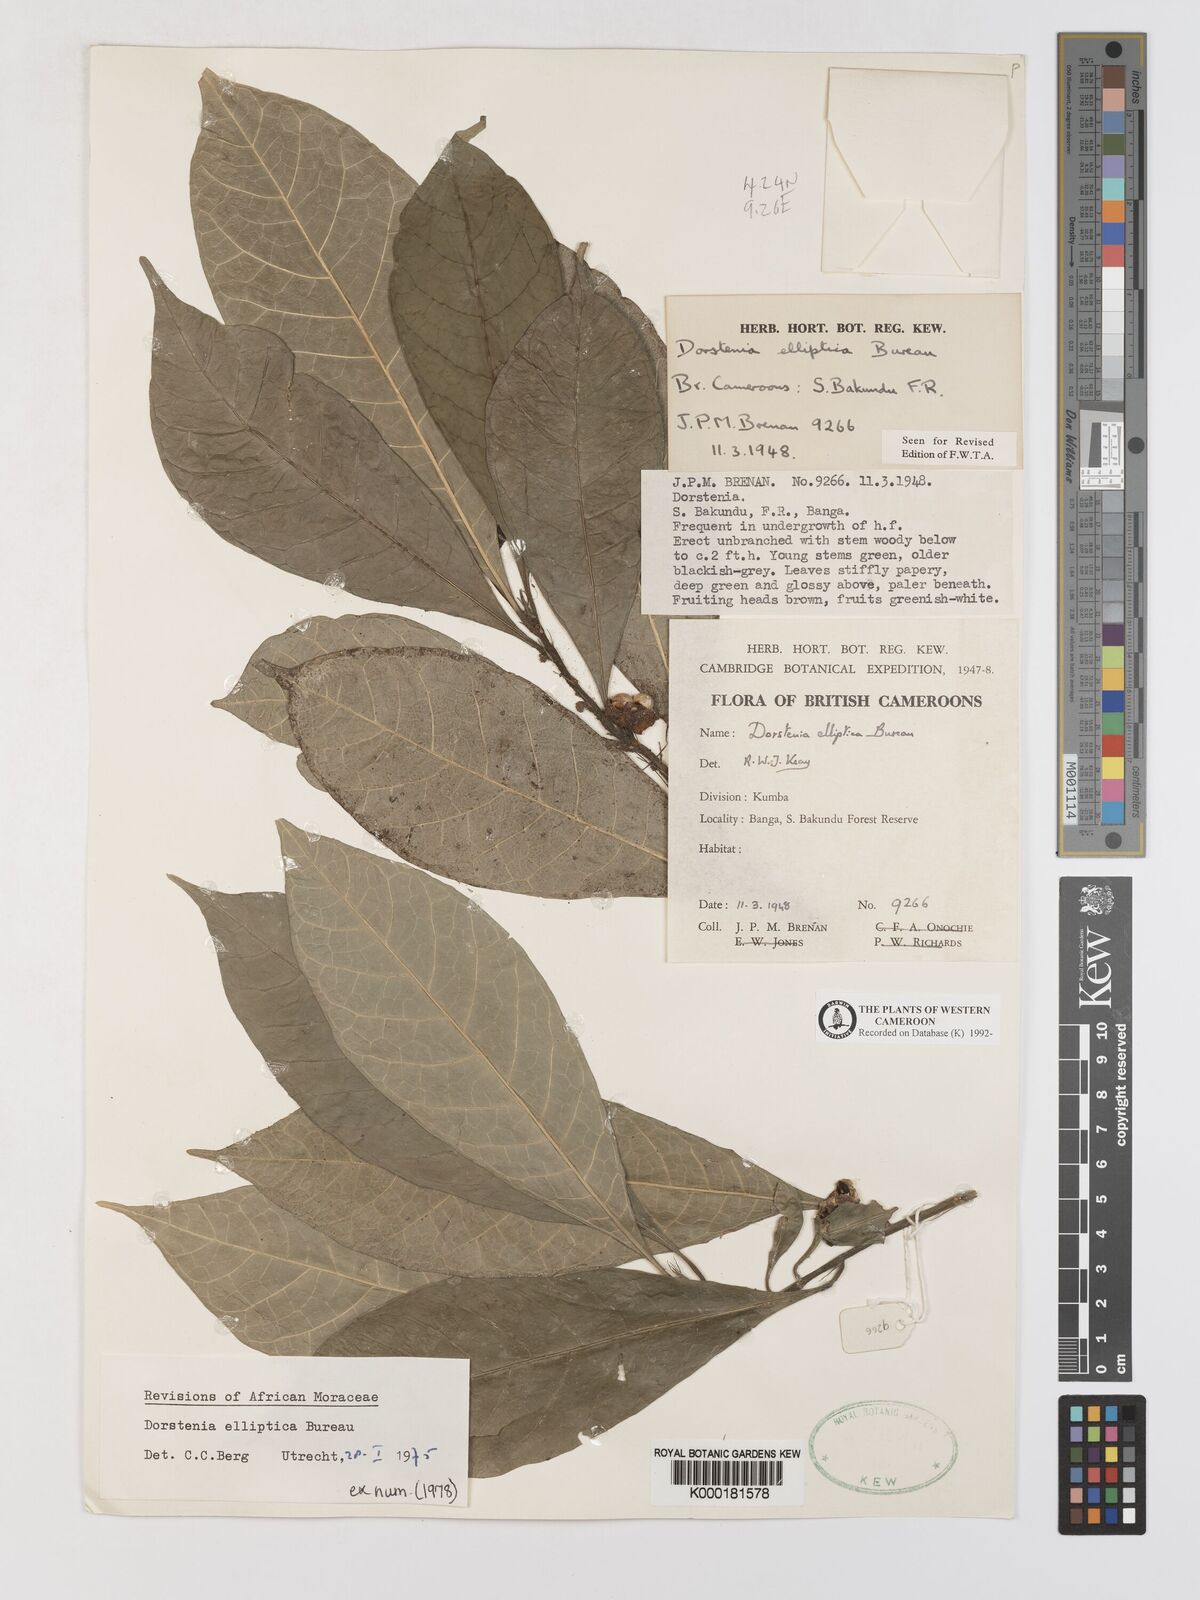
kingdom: Plantae
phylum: Tracheophyta
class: Magnoliopsida
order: Rosales
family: Moraceae
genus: Dorstenia
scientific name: Dorstenia elliptica
